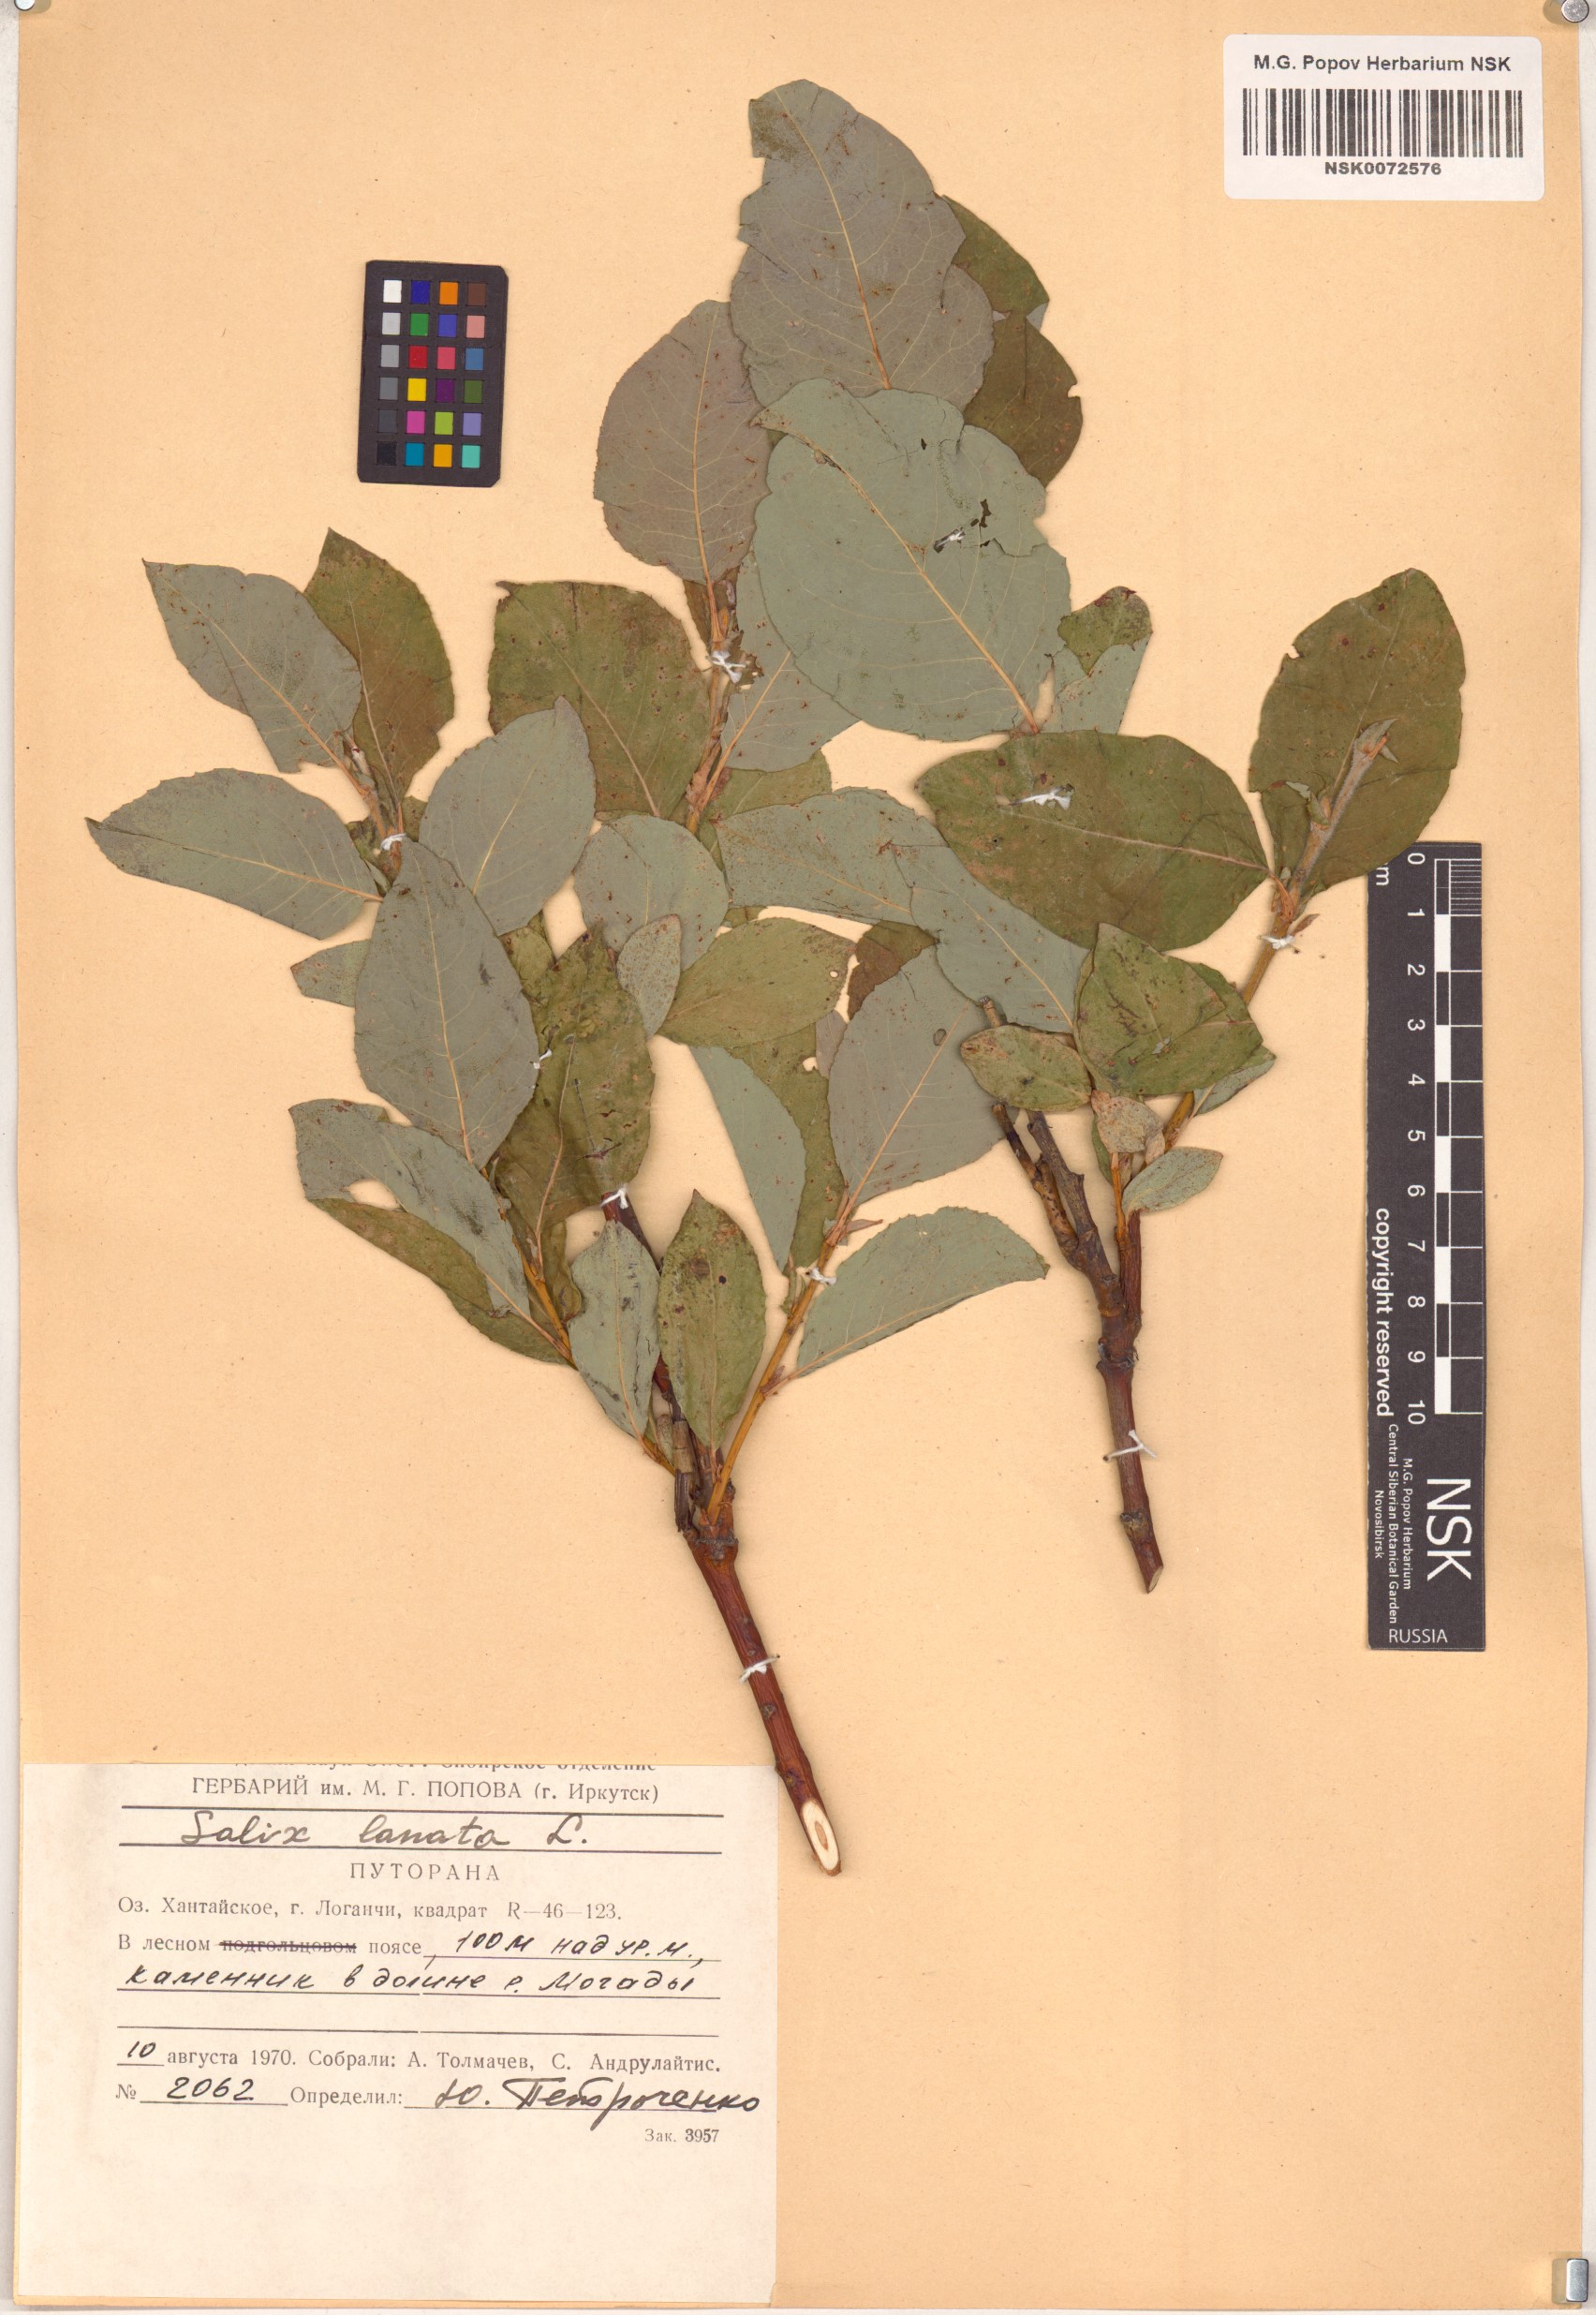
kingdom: Plantae
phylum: Tracheophyta
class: Magnoliopsida
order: Malpighiales
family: Salicaceae
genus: Salix
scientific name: Salix lanata
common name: Woolly willow
